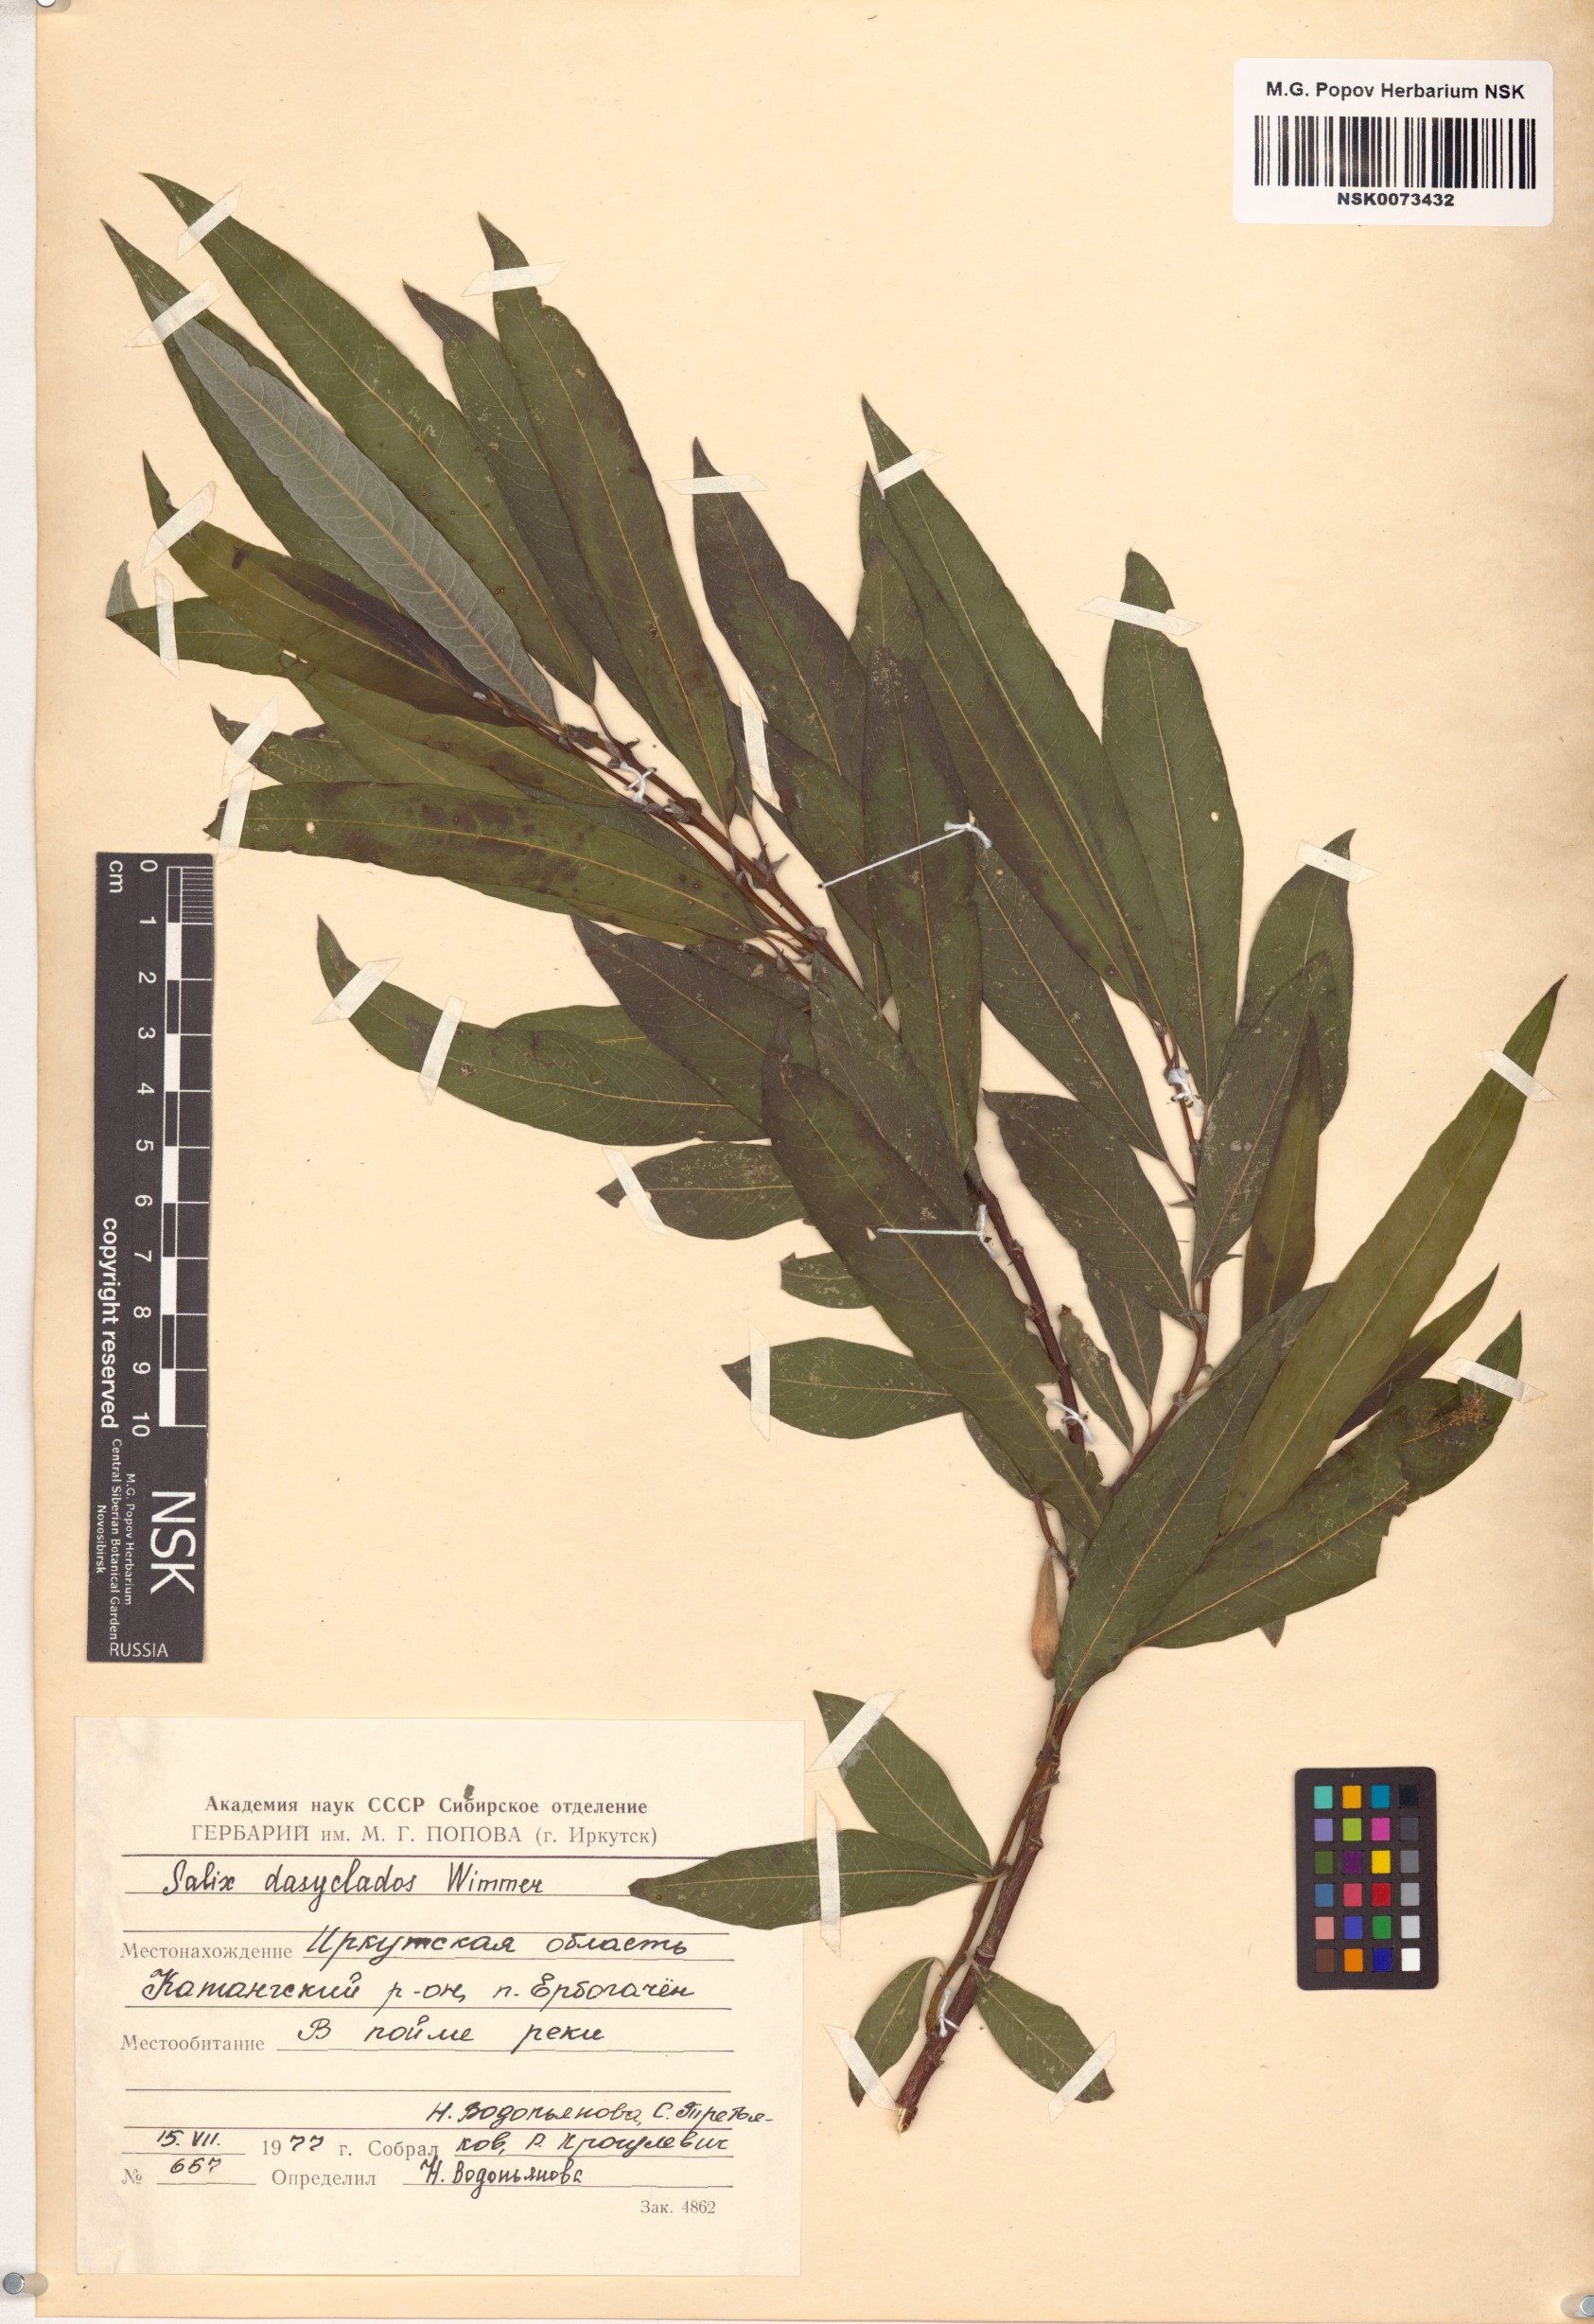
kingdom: Plantae
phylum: Tracheophyta
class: Magnoliopsida
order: Malpighiales
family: Salicaceae
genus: Salix
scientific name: Salix gmelinii
